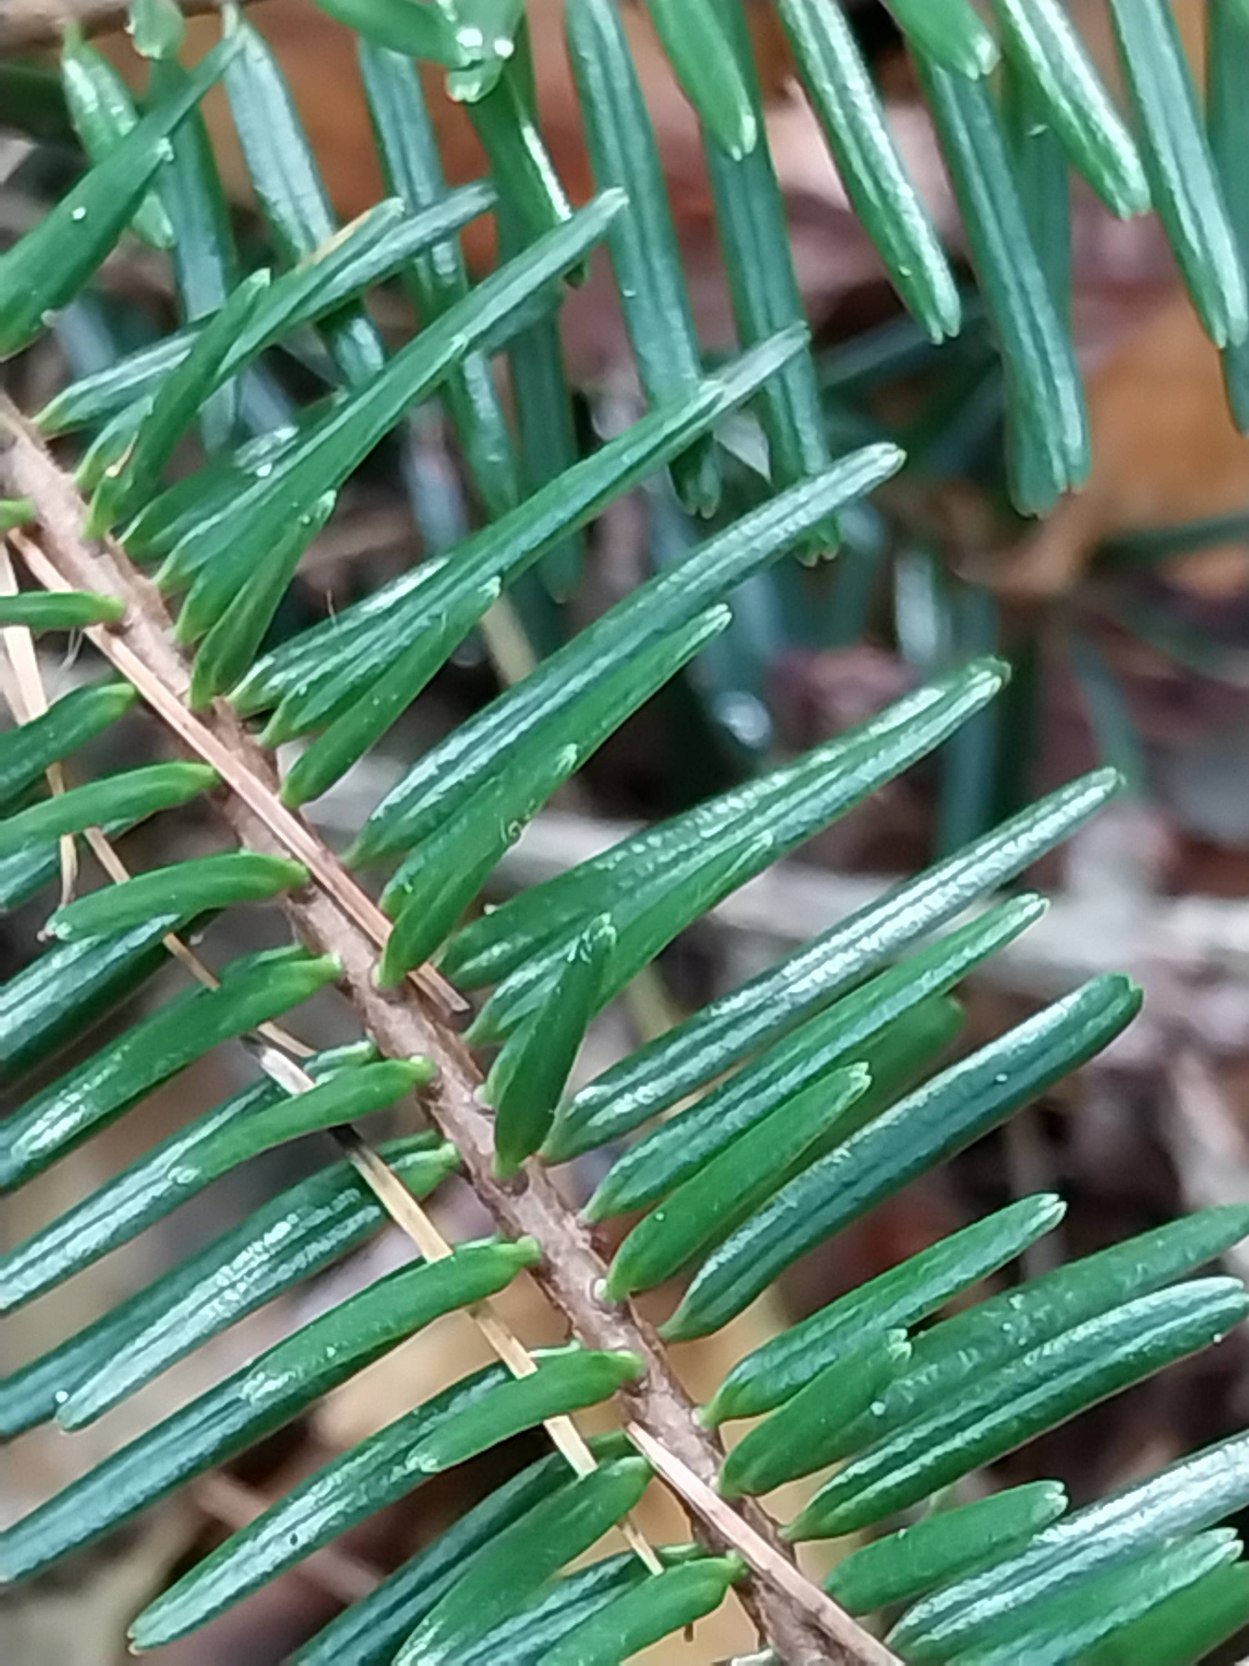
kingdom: Plantae
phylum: Tracheophyta
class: Pinopsida
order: Pinales
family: Pinaceae
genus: Abies
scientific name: Abies alba
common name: Almindelig ædelgran
